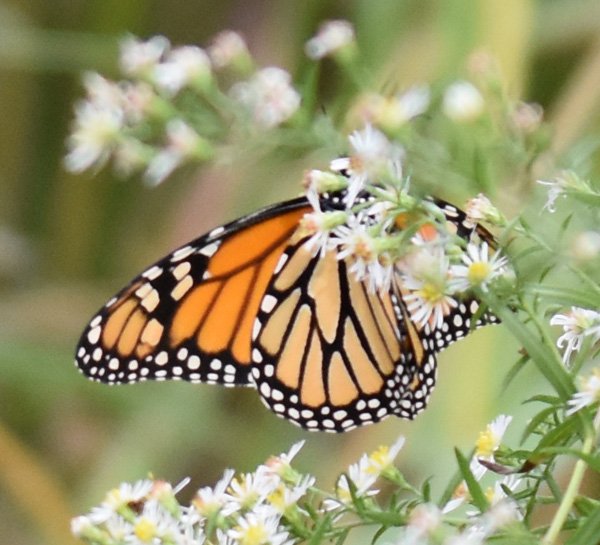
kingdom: Animalia
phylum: Arthropoda
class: Insecta
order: Lepidoptera
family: Nymphalidae
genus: Danaus
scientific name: Danaus plexippus
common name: Monarch
